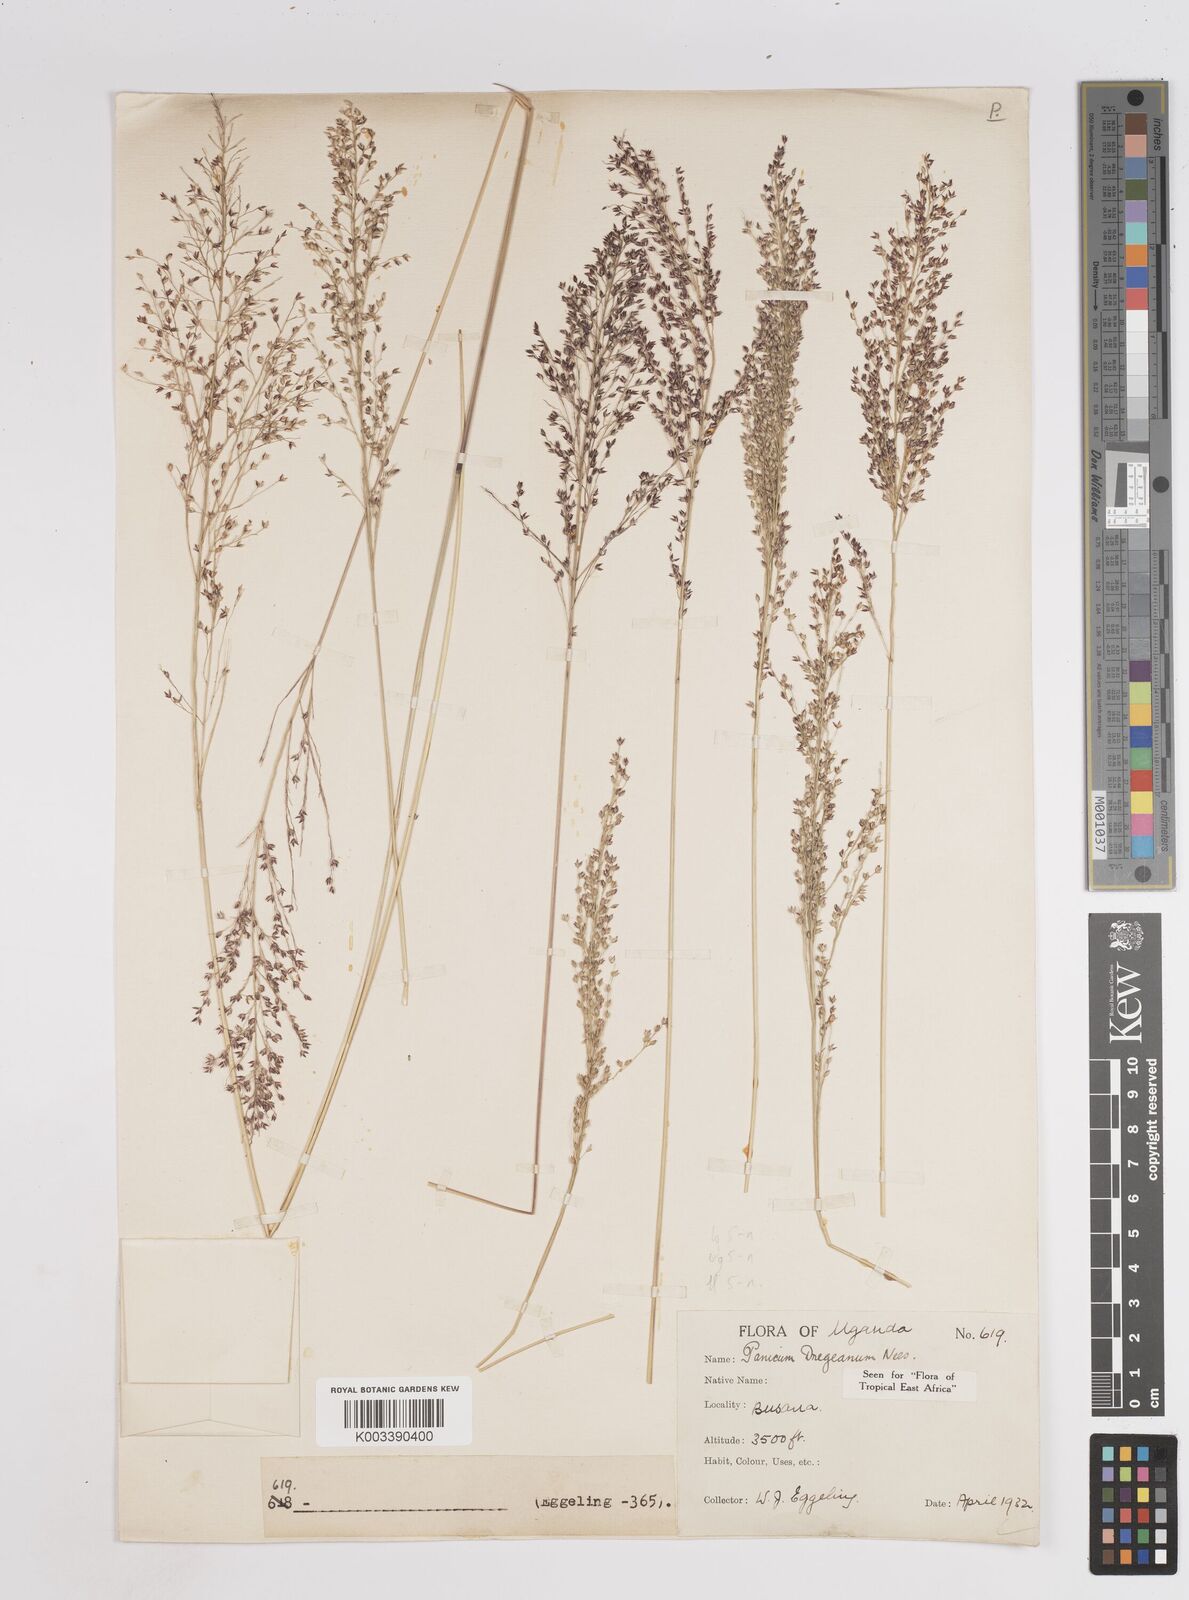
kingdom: Plantae
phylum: Tracheophyta
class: Liliopsida
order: Poales
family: Poaceae
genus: Panicum
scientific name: Panicum dregeanum
